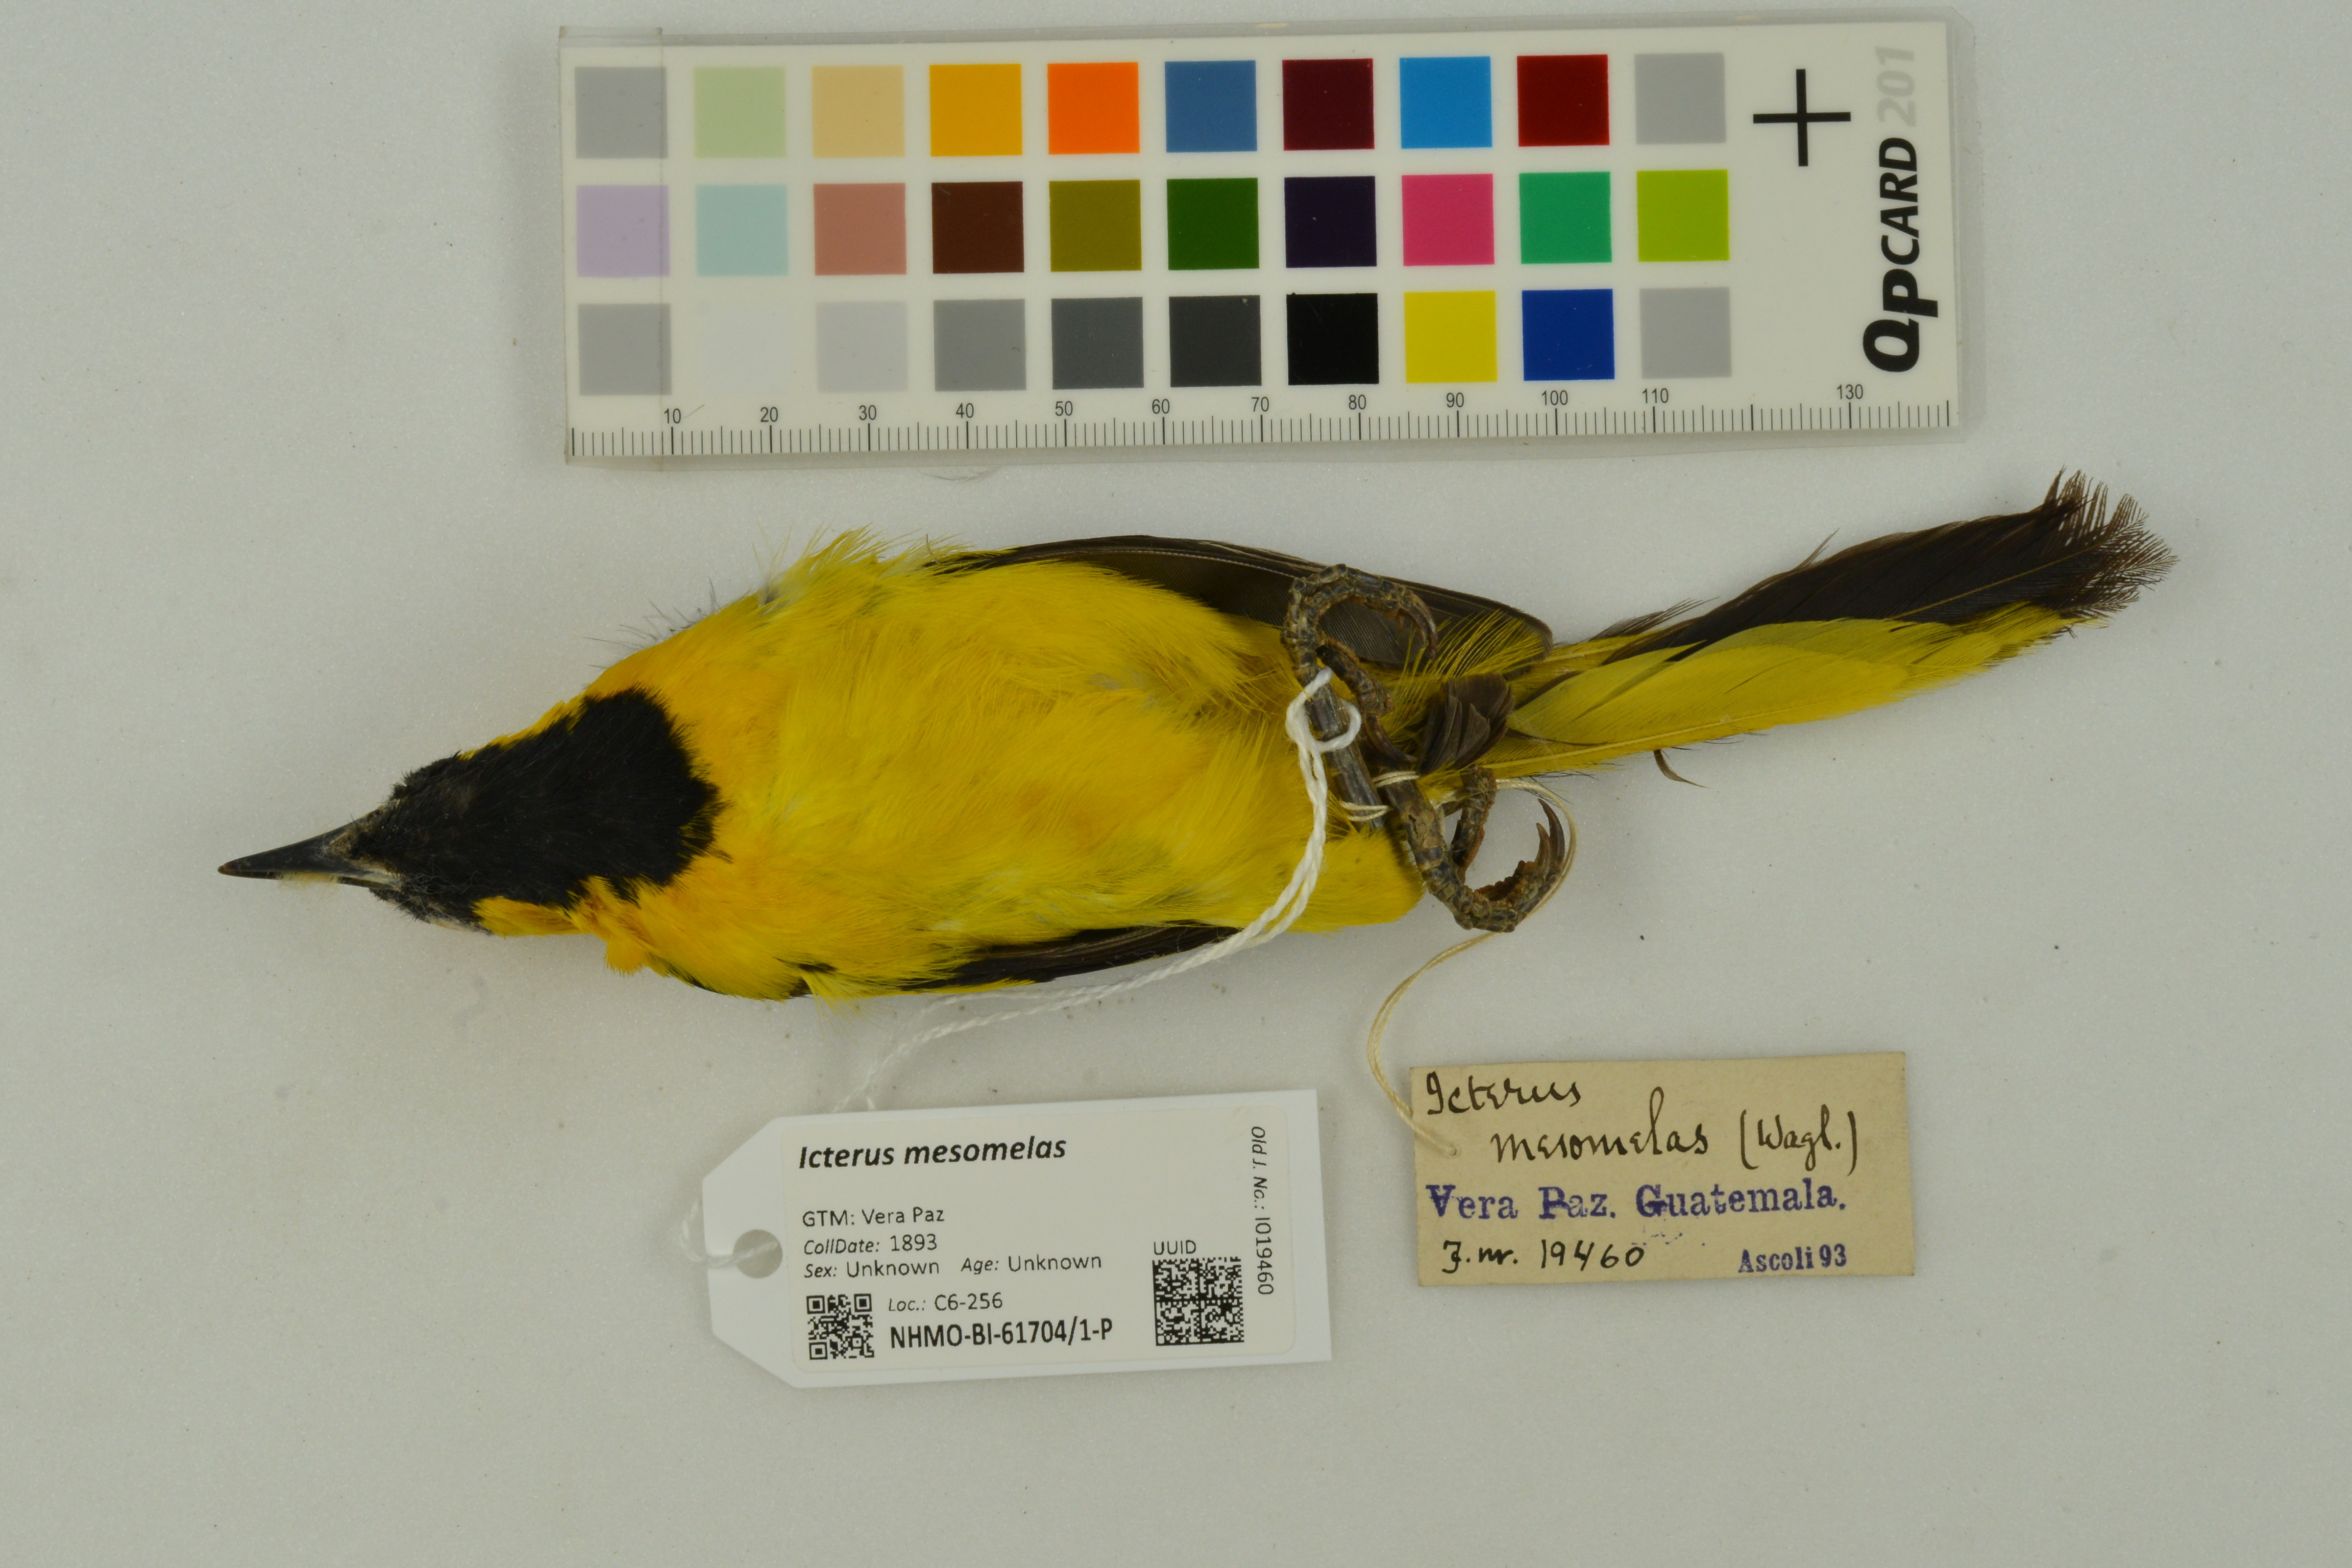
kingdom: Animalia
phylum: Chordata
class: Aves
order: Passeriformes
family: Icteridae
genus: Icterus
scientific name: Icterus mesomelas
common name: Yellow-tailed oriole
